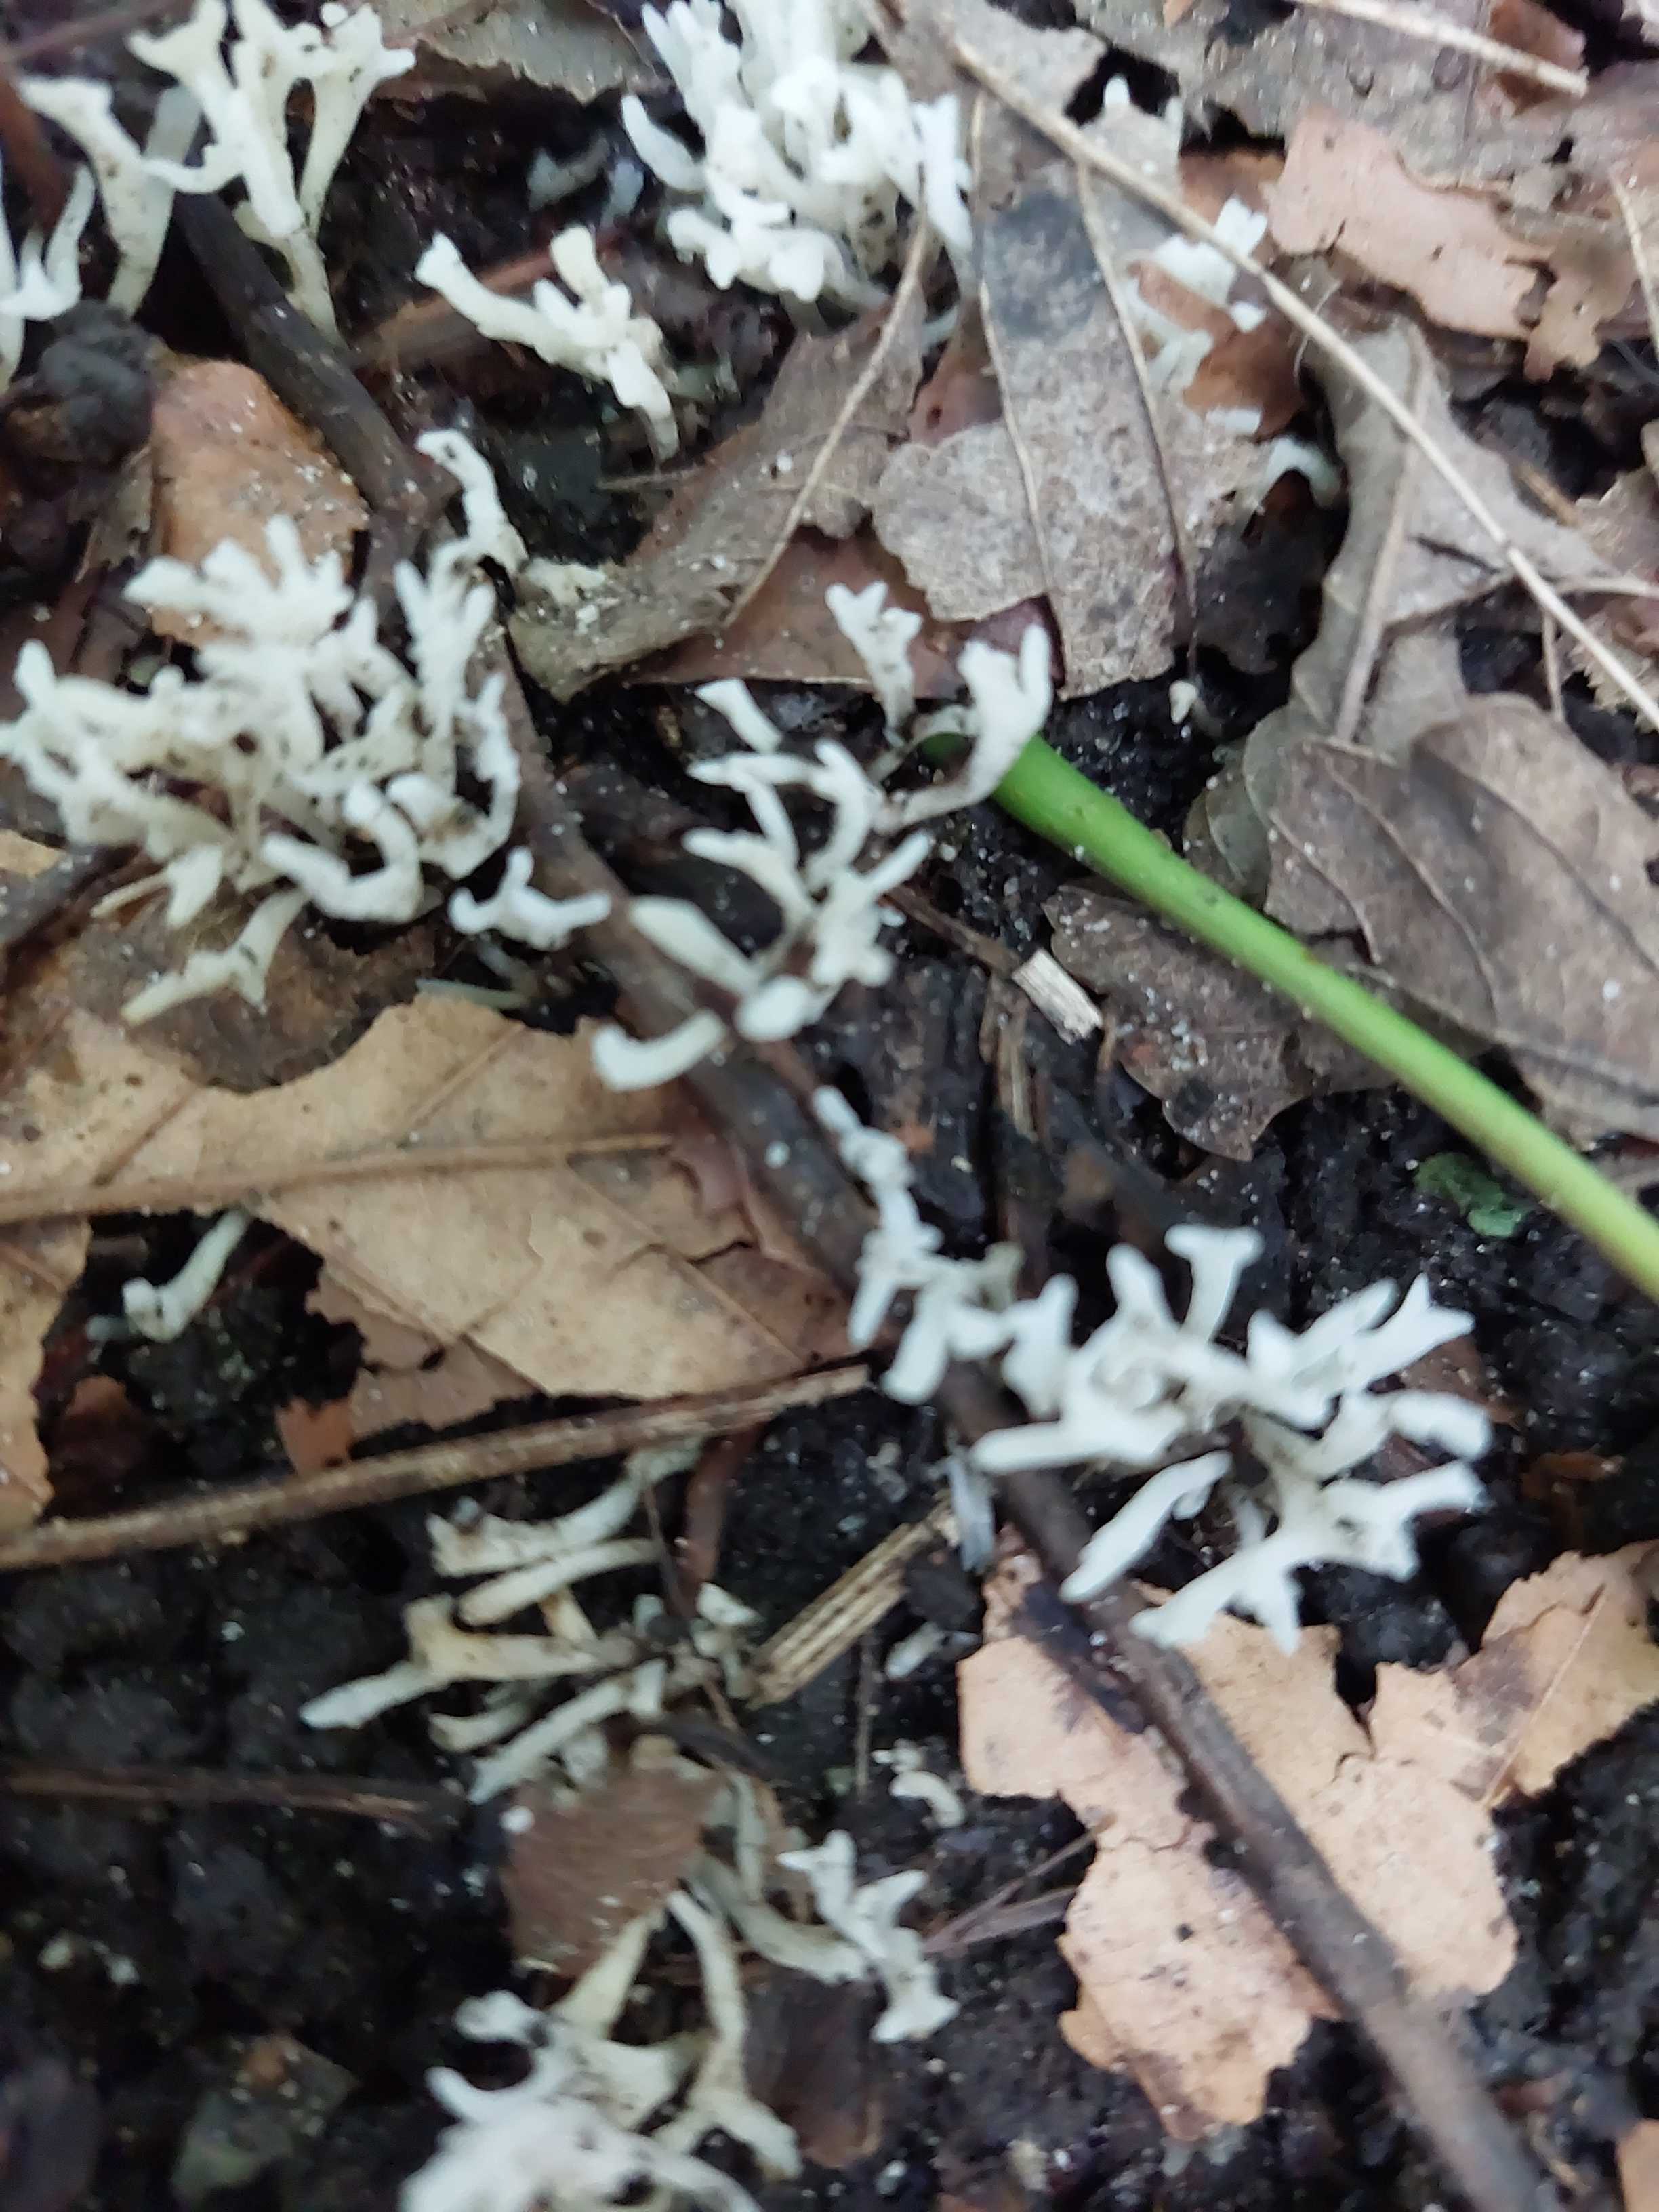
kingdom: Fungi
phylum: Basidiomycota
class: Agaricomycetes
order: Agaricales
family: Clavariaceae
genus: Ramariopsis
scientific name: Ramariopsis
